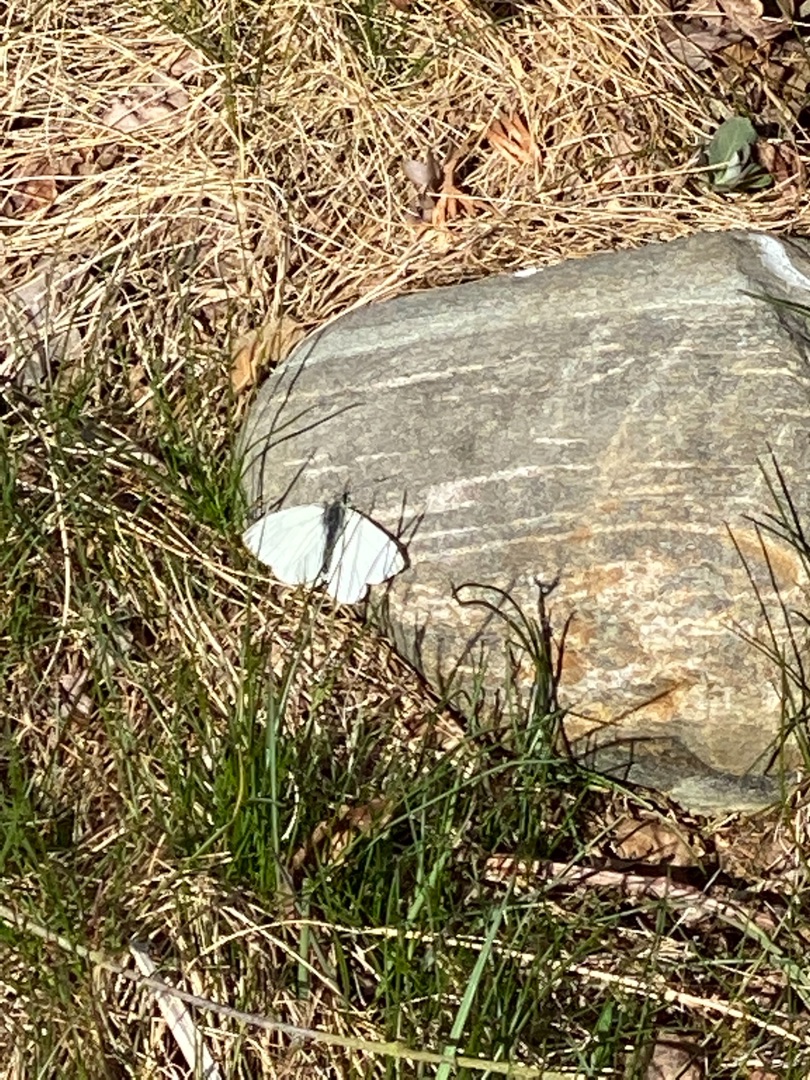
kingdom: Animalia
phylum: Arthropoda
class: Insecta
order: Lepidoptera
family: Pieridae
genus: Pieris
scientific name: Pieris napi
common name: Grønåret kålsommerfugl
